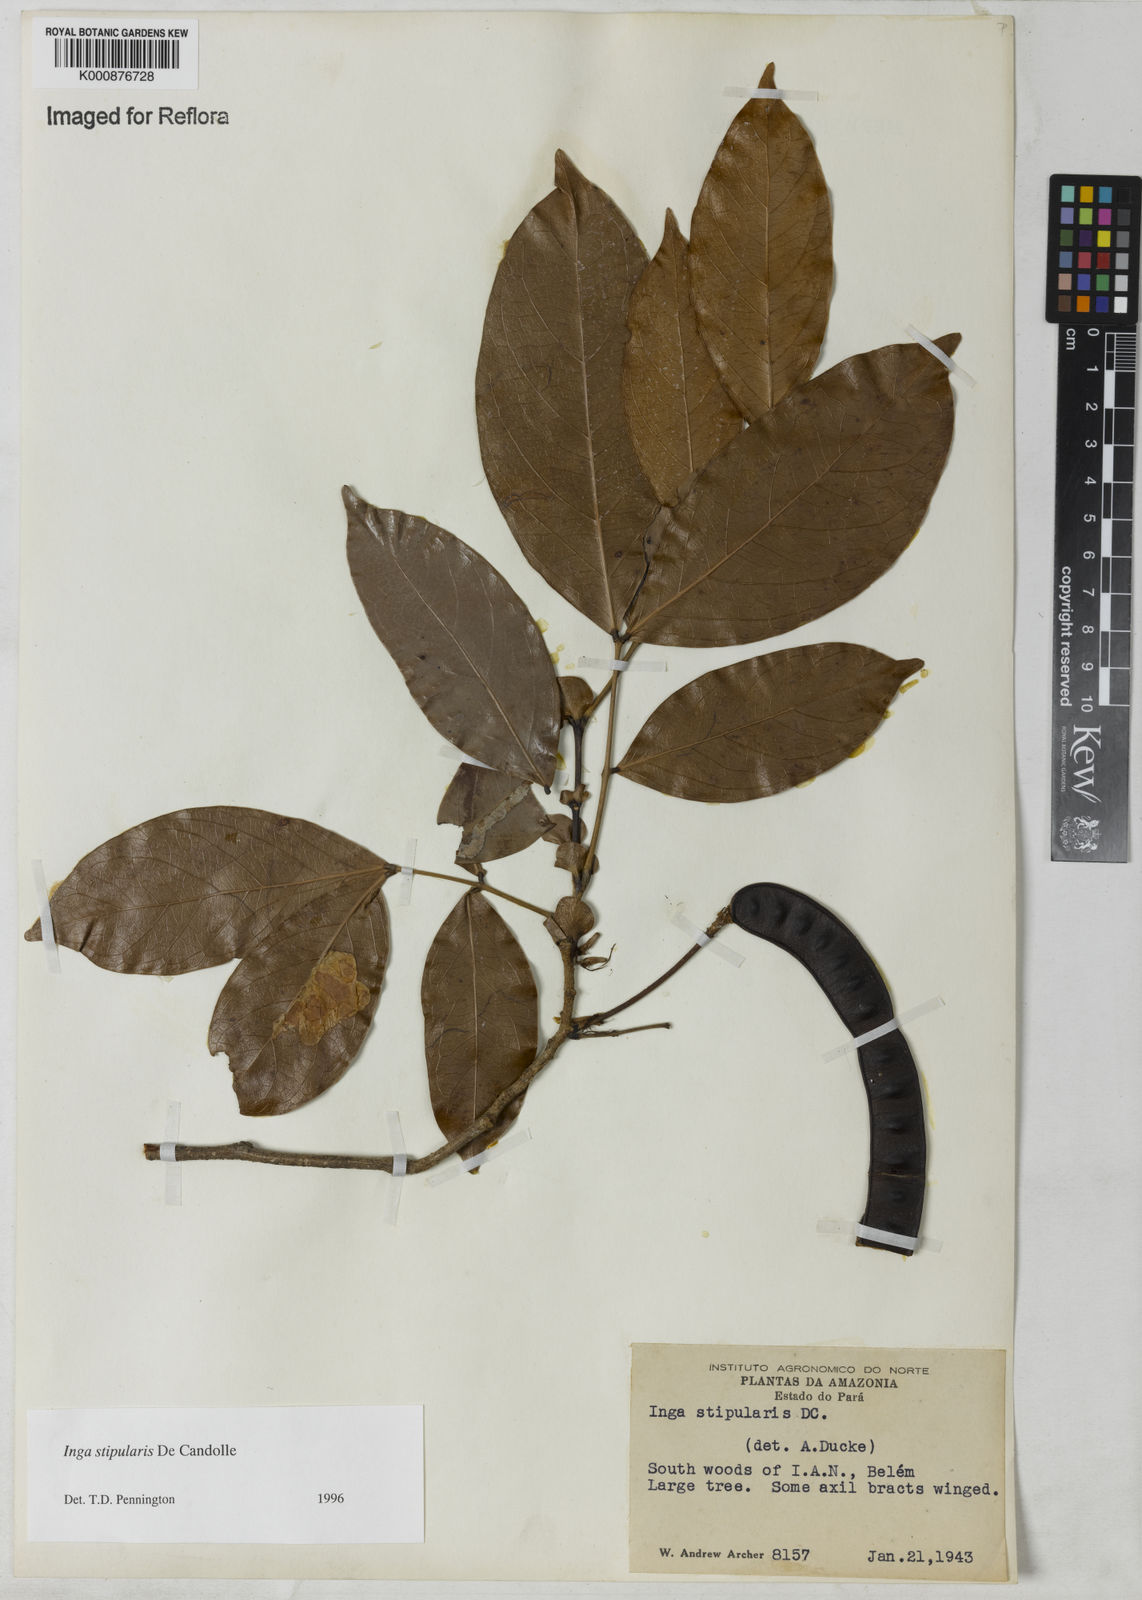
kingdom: Plantae
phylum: Tracheophyta
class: Magnoliopsida
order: Fabales
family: Fabaceae
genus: Inga
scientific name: Inga stipularis
